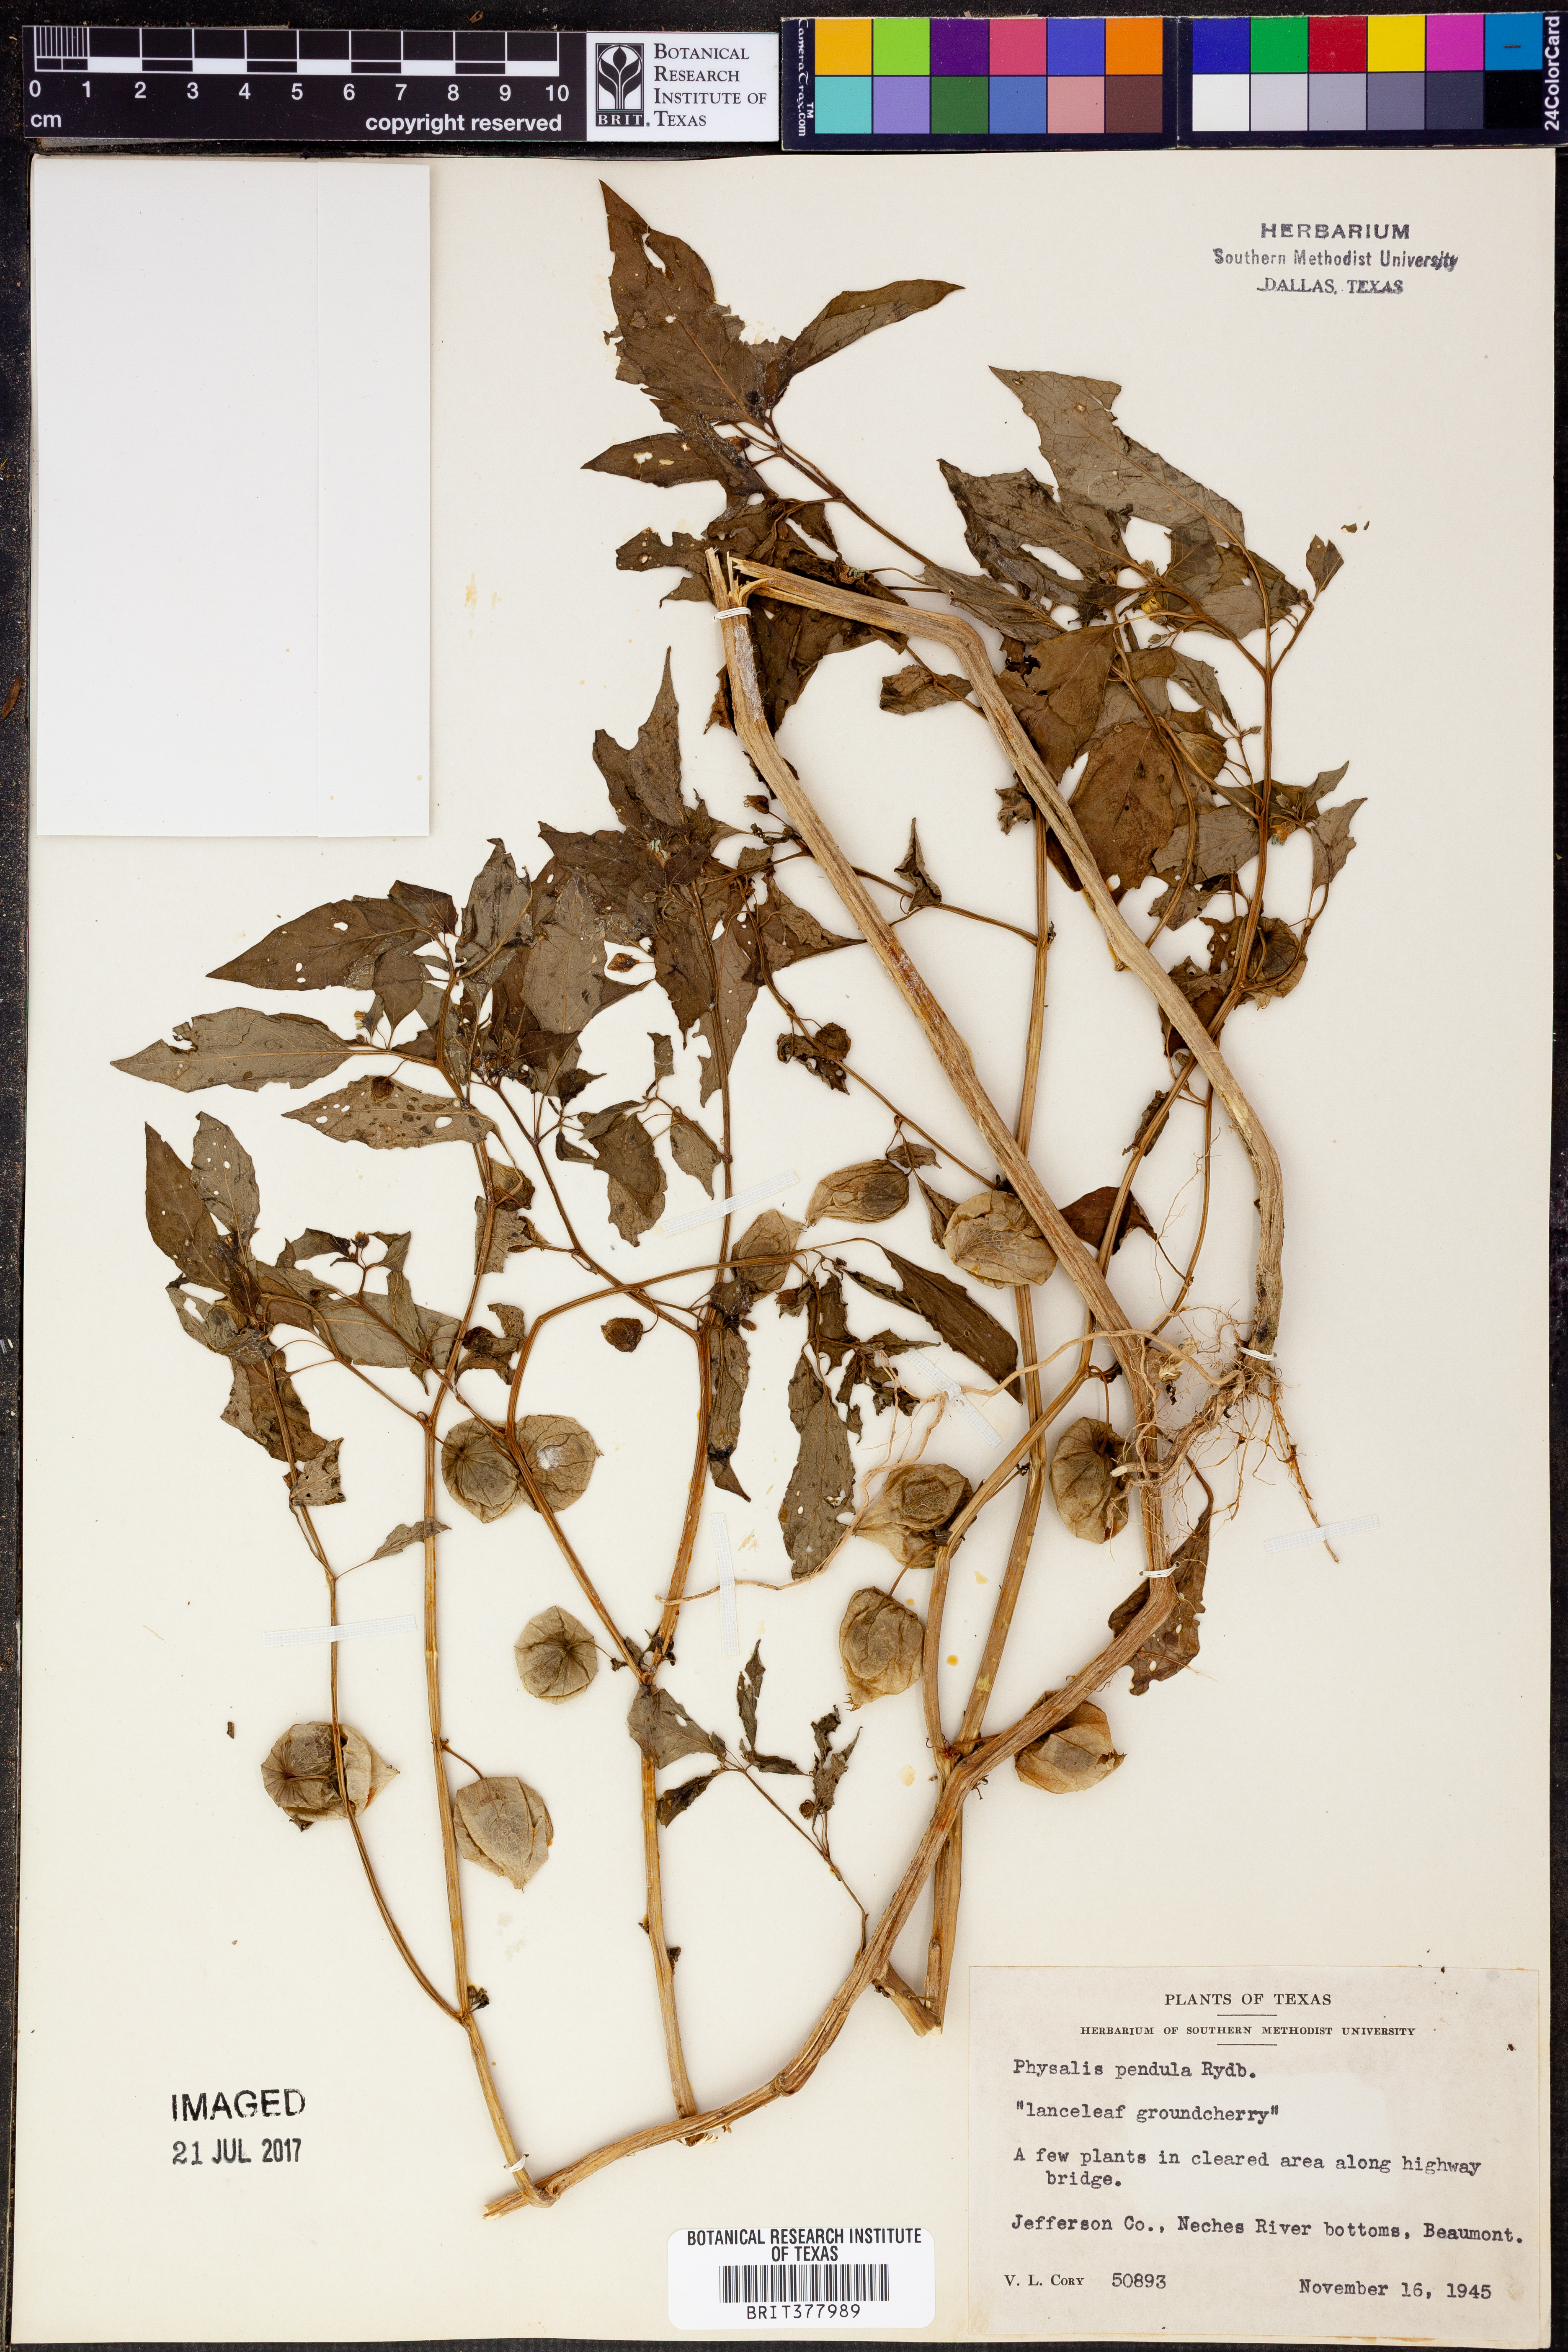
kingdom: Plantae
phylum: Tracheophyta
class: Magnoliopsida
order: Solanales
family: Solanaceae
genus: Physalis
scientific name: Physalis angulata
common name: Angular winter-cherry
